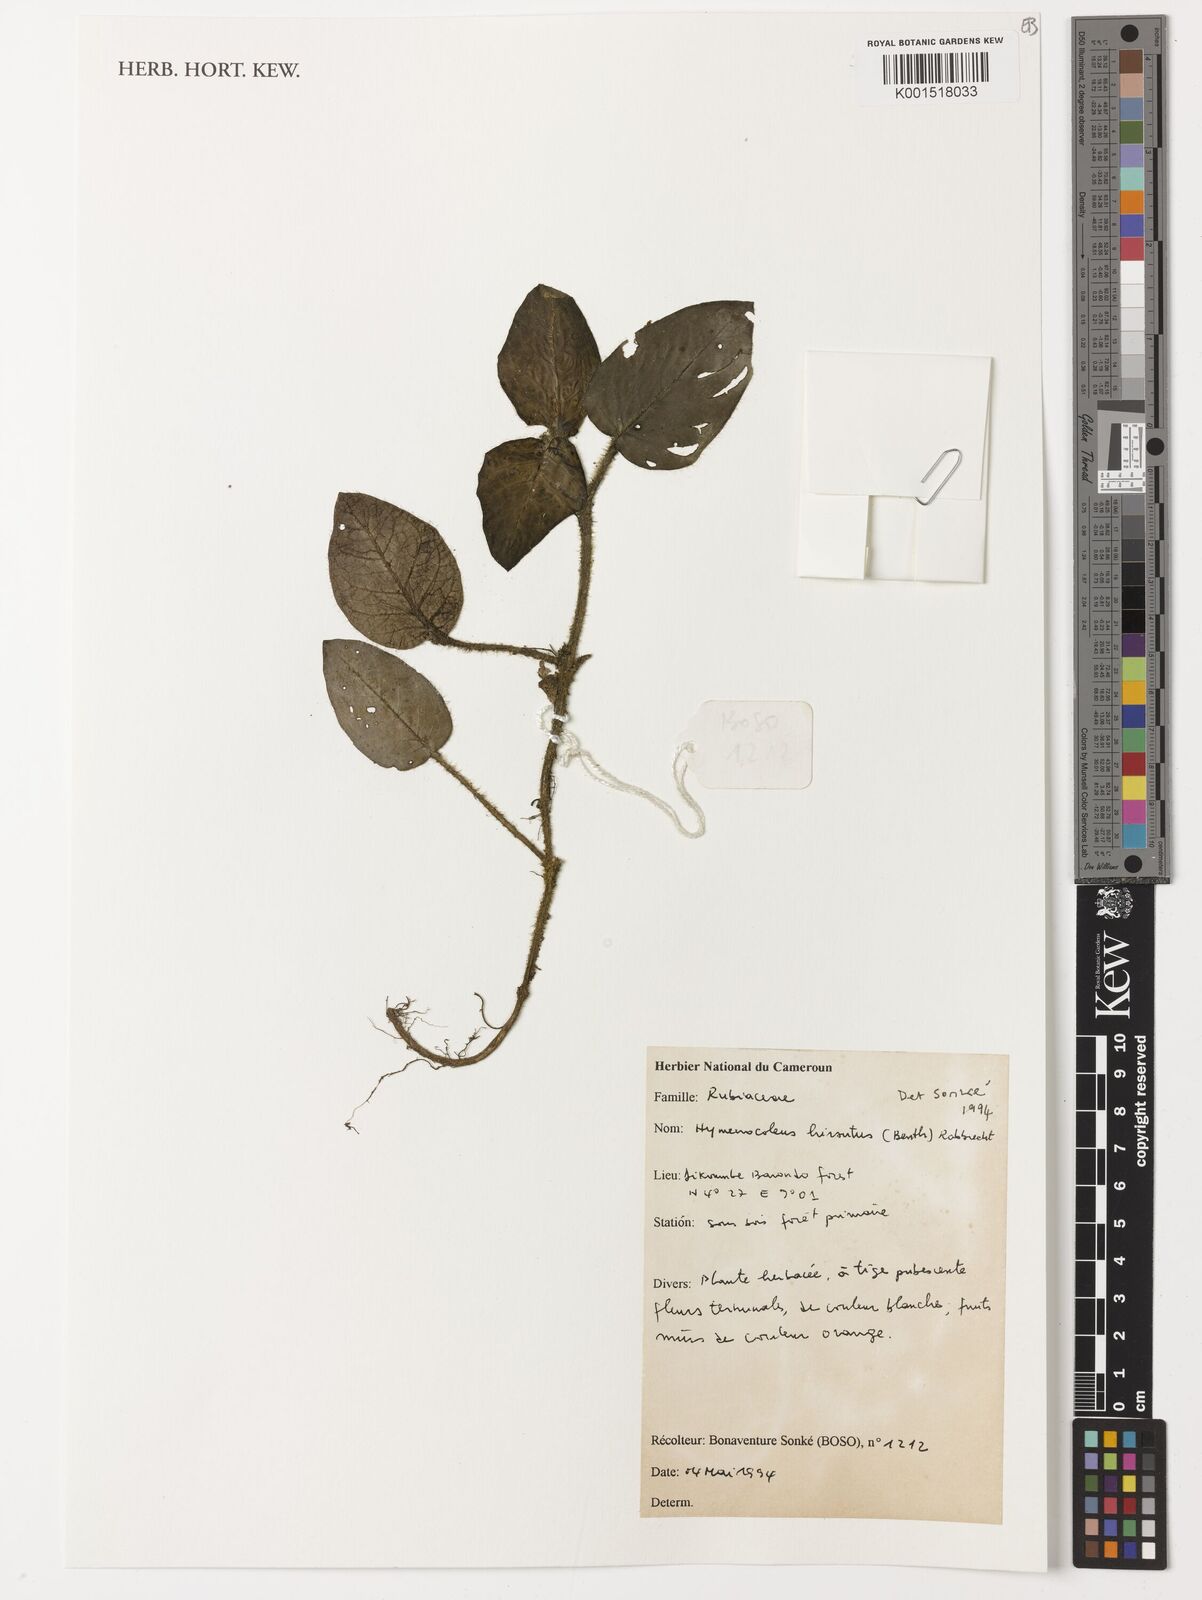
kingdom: Plantae
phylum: Tracheophyta
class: Magnoliopsida
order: Gentianales
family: Rubiaceae
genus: Hymenocoleus
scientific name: Hymenocoleus hirsutus
